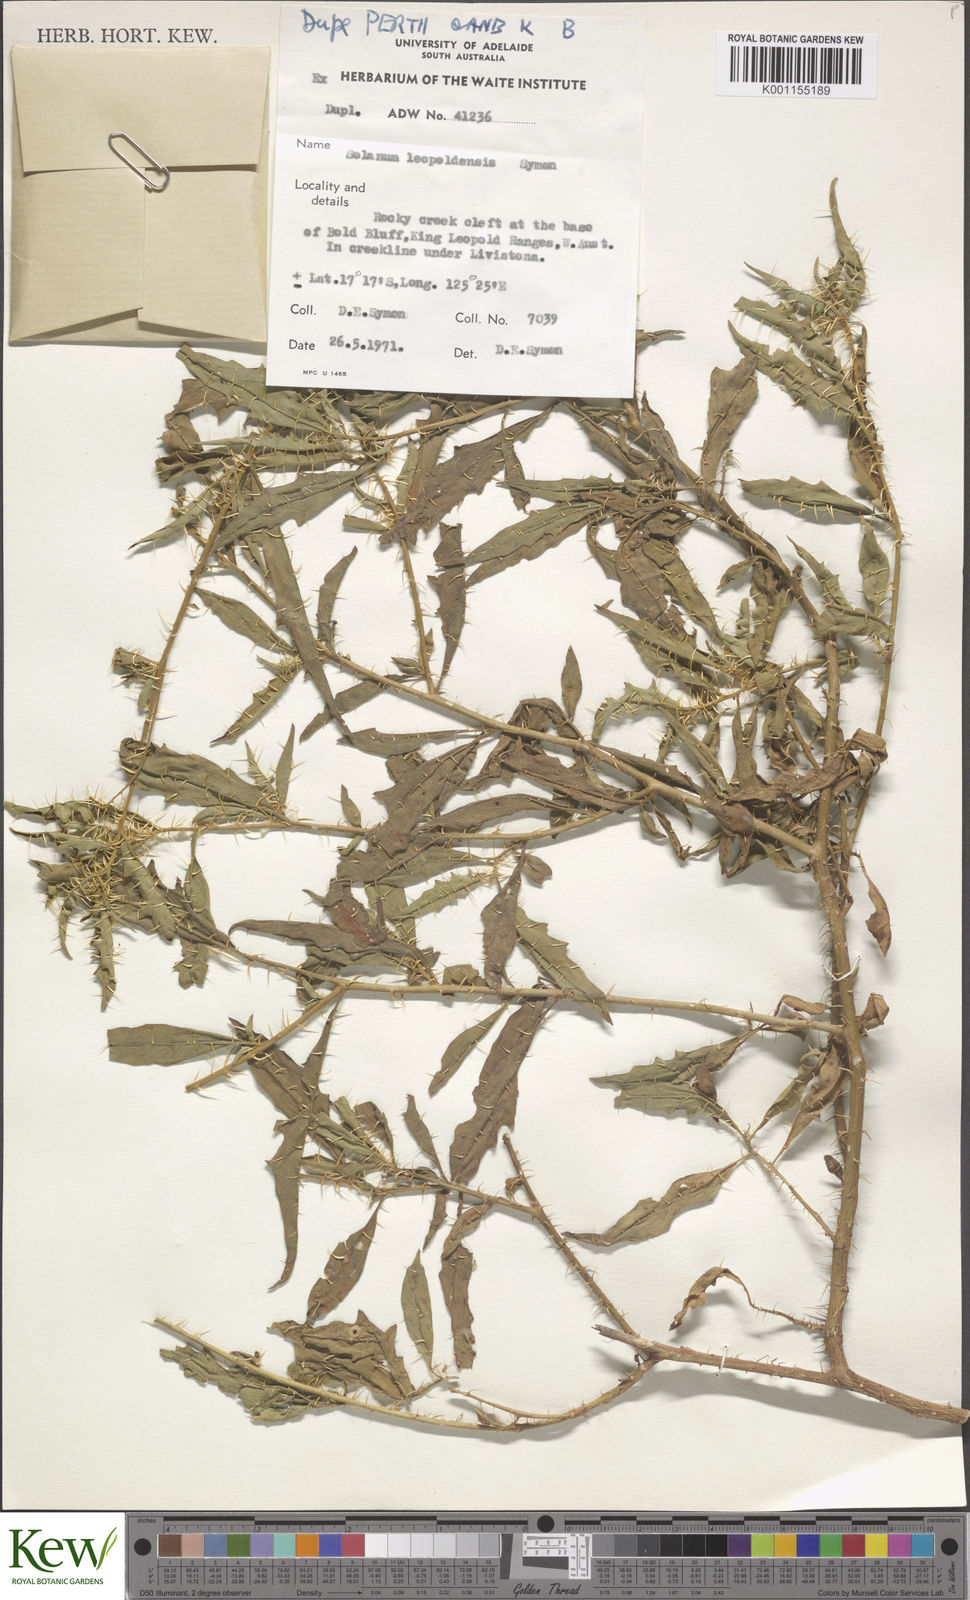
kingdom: Plantae
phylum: Tracheophyta
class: Magnoliopsida
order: Solanales
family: Solanaceae
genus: Solanum
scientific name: Solanum
